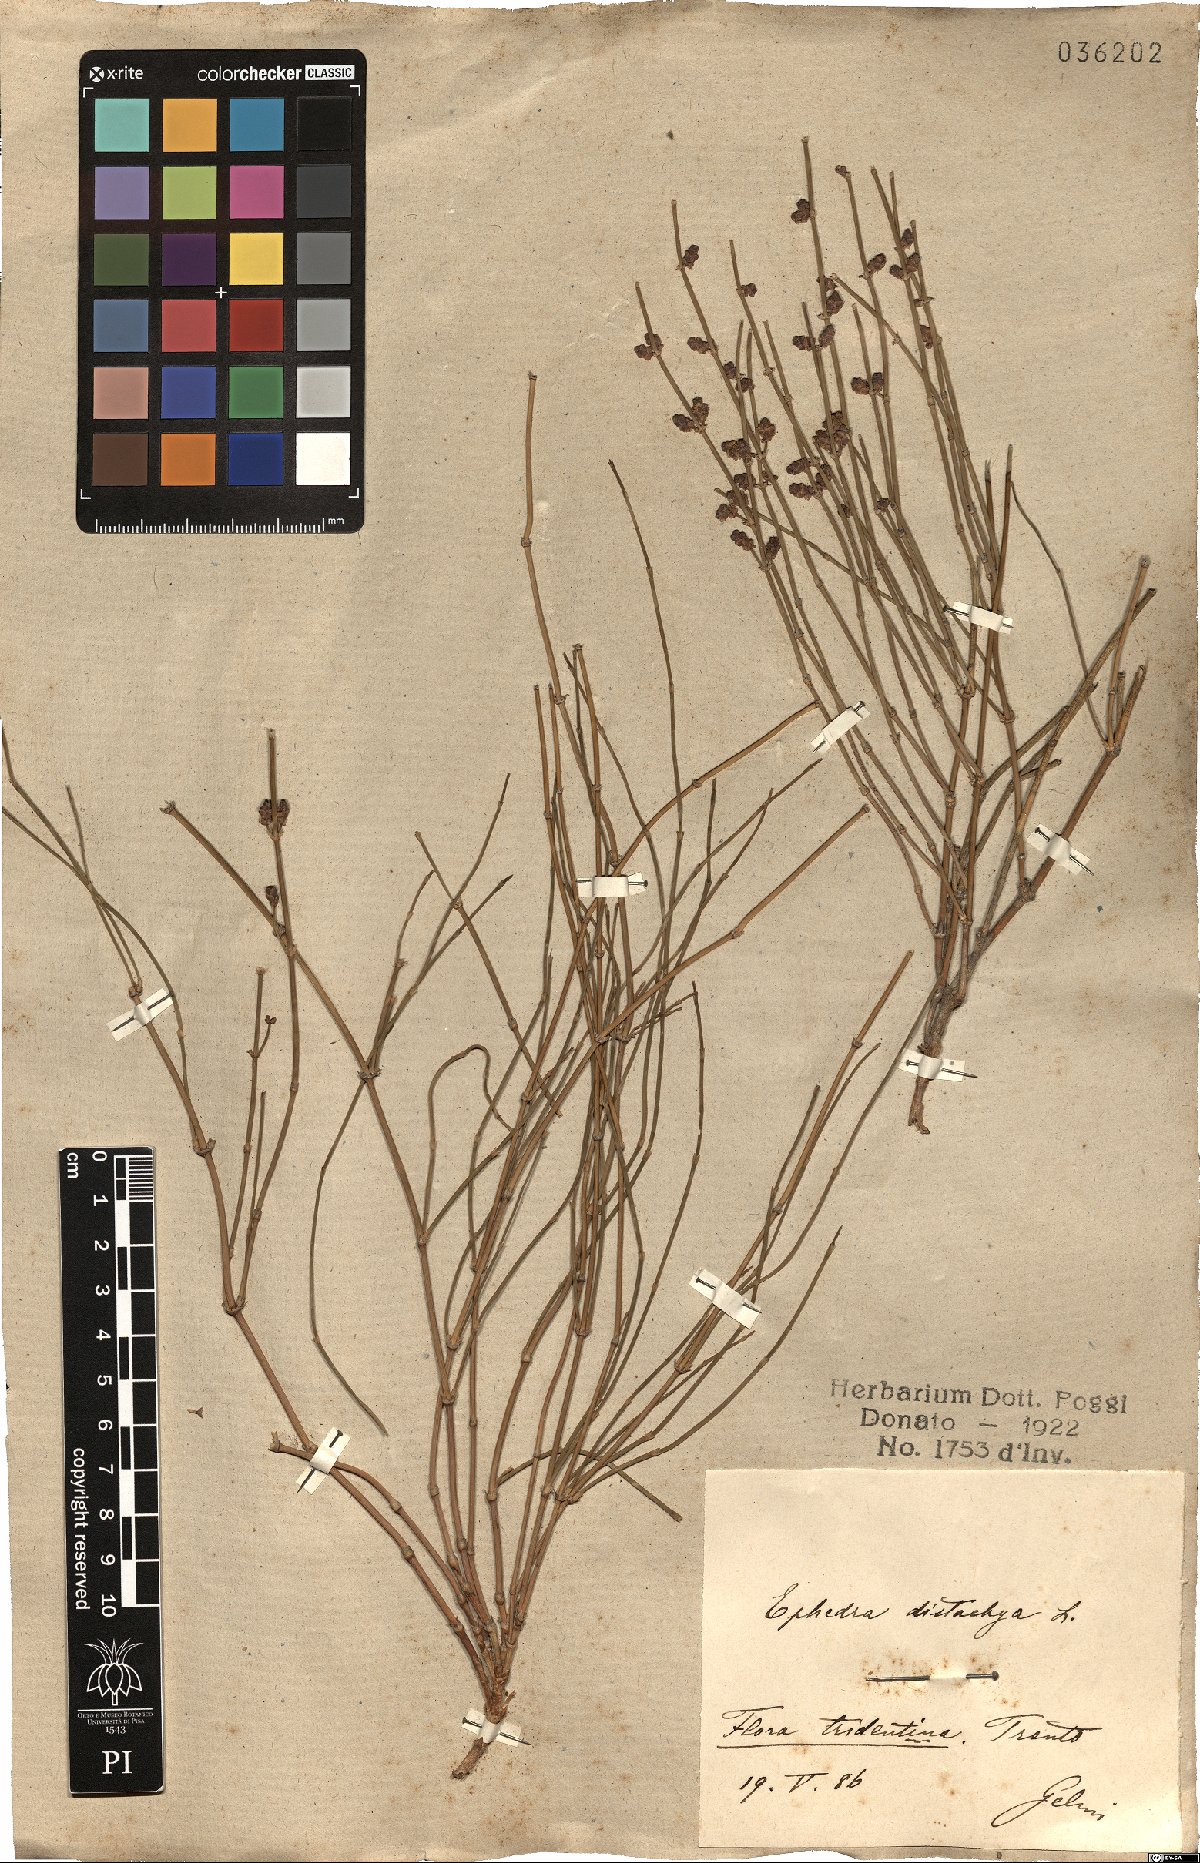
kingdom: Plantae
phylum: Tracheophyta
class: Gnetopsida
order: Ephedrales
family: Ephedraceae
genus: Ephedra
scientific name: Ephedra distachya
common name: Sea grape
